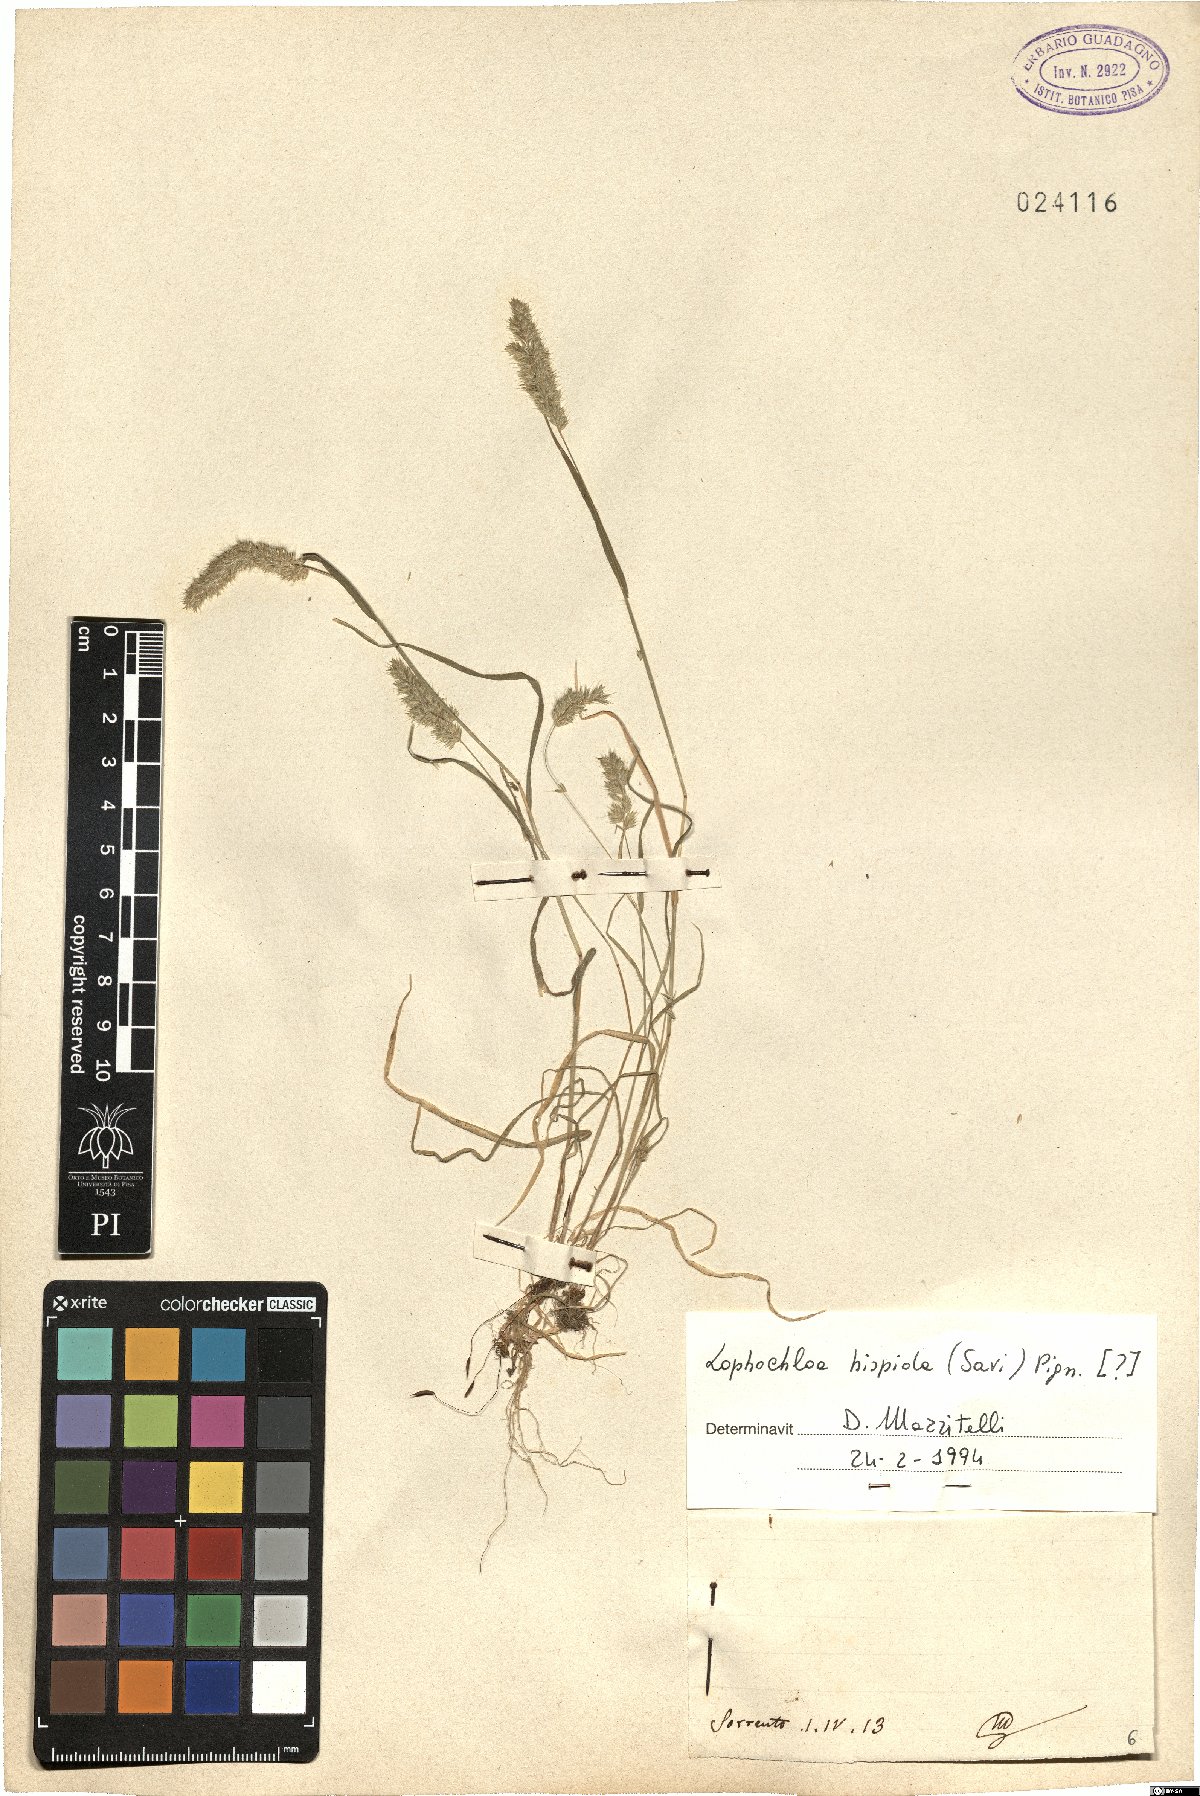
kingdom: Plantae
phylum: Tracheophyta
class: Liliopsida
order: Poales
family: Poaceae
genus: Rostraria
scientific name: Rostraria hispida
